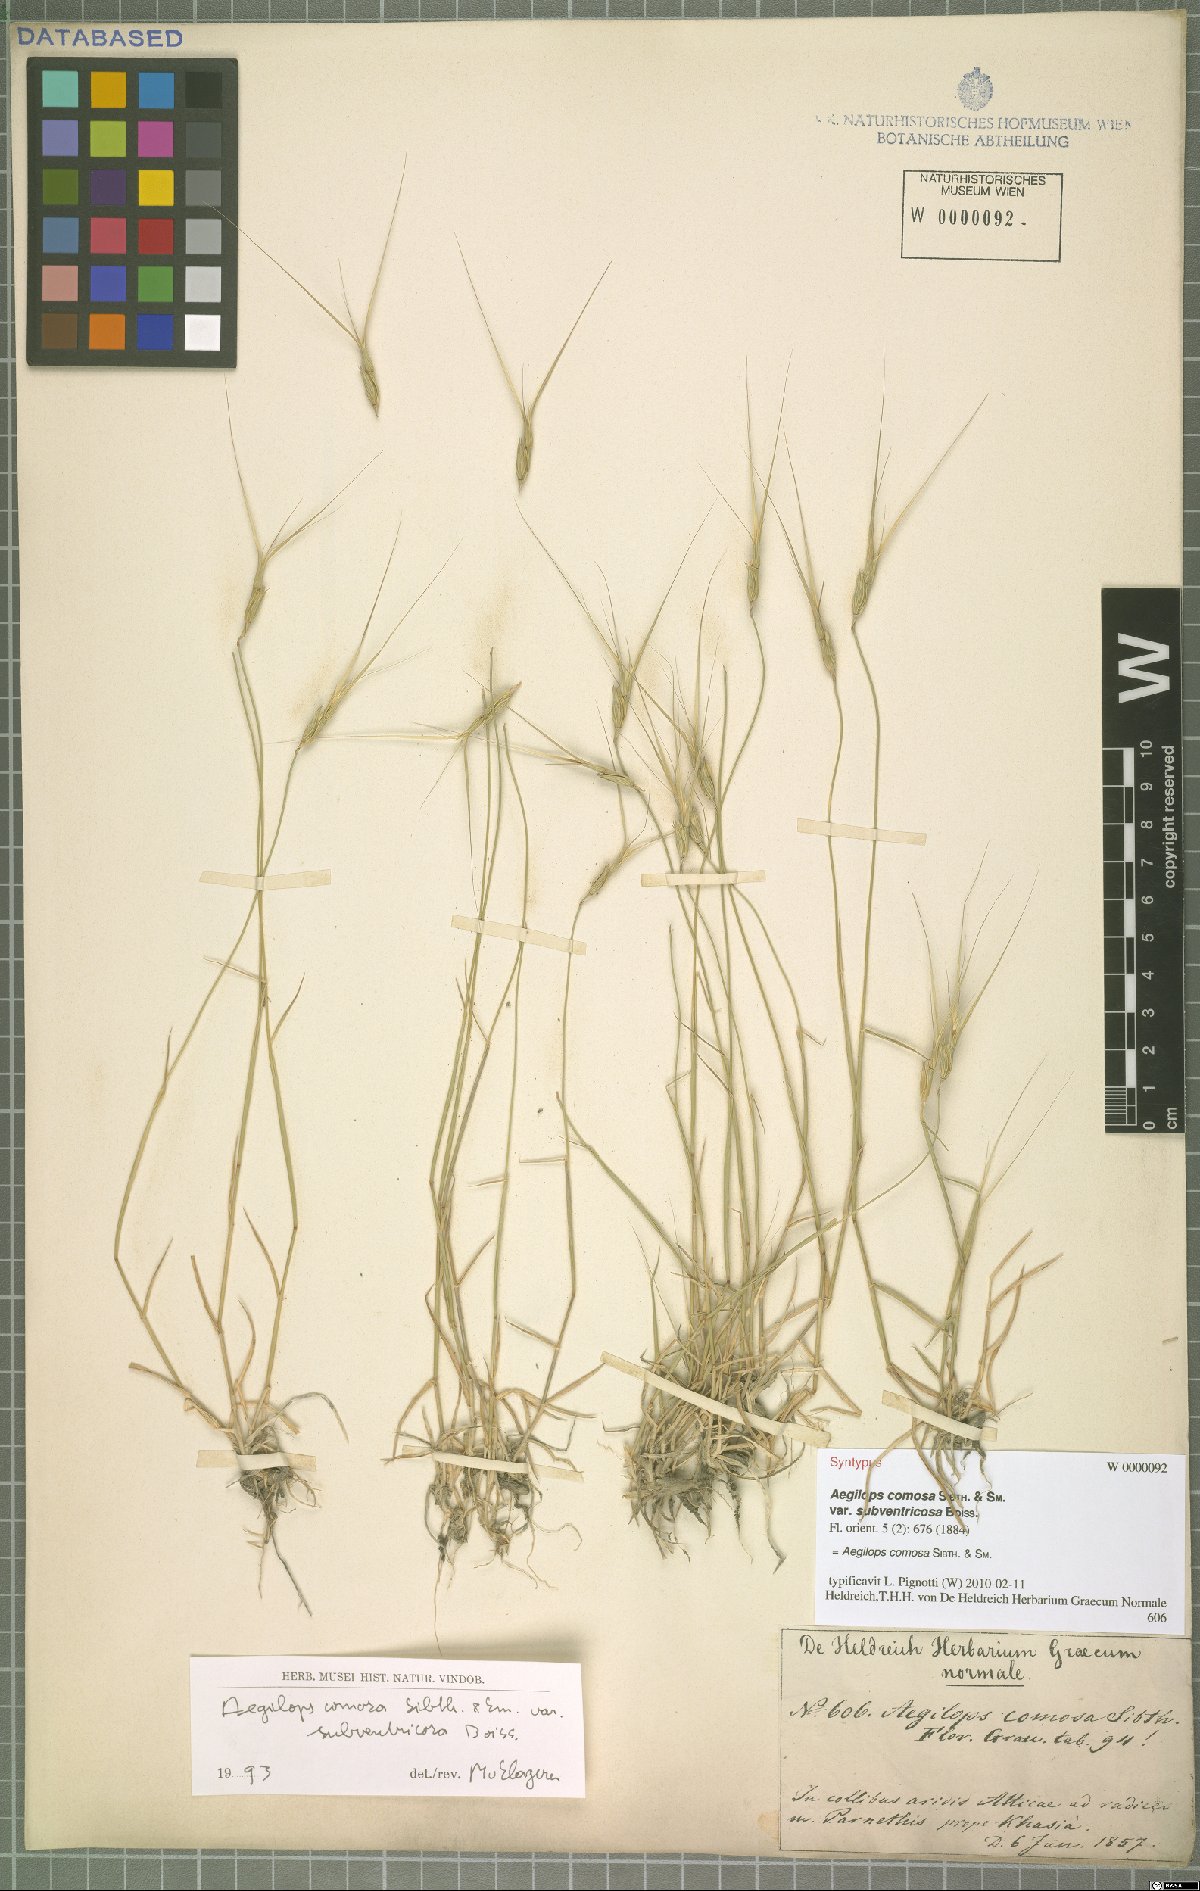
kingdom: Plantae
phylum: Tracheophyta
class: Liliopsida
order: Poales
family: Poaceae
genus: Aegilops
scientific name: Aegilops comosa
